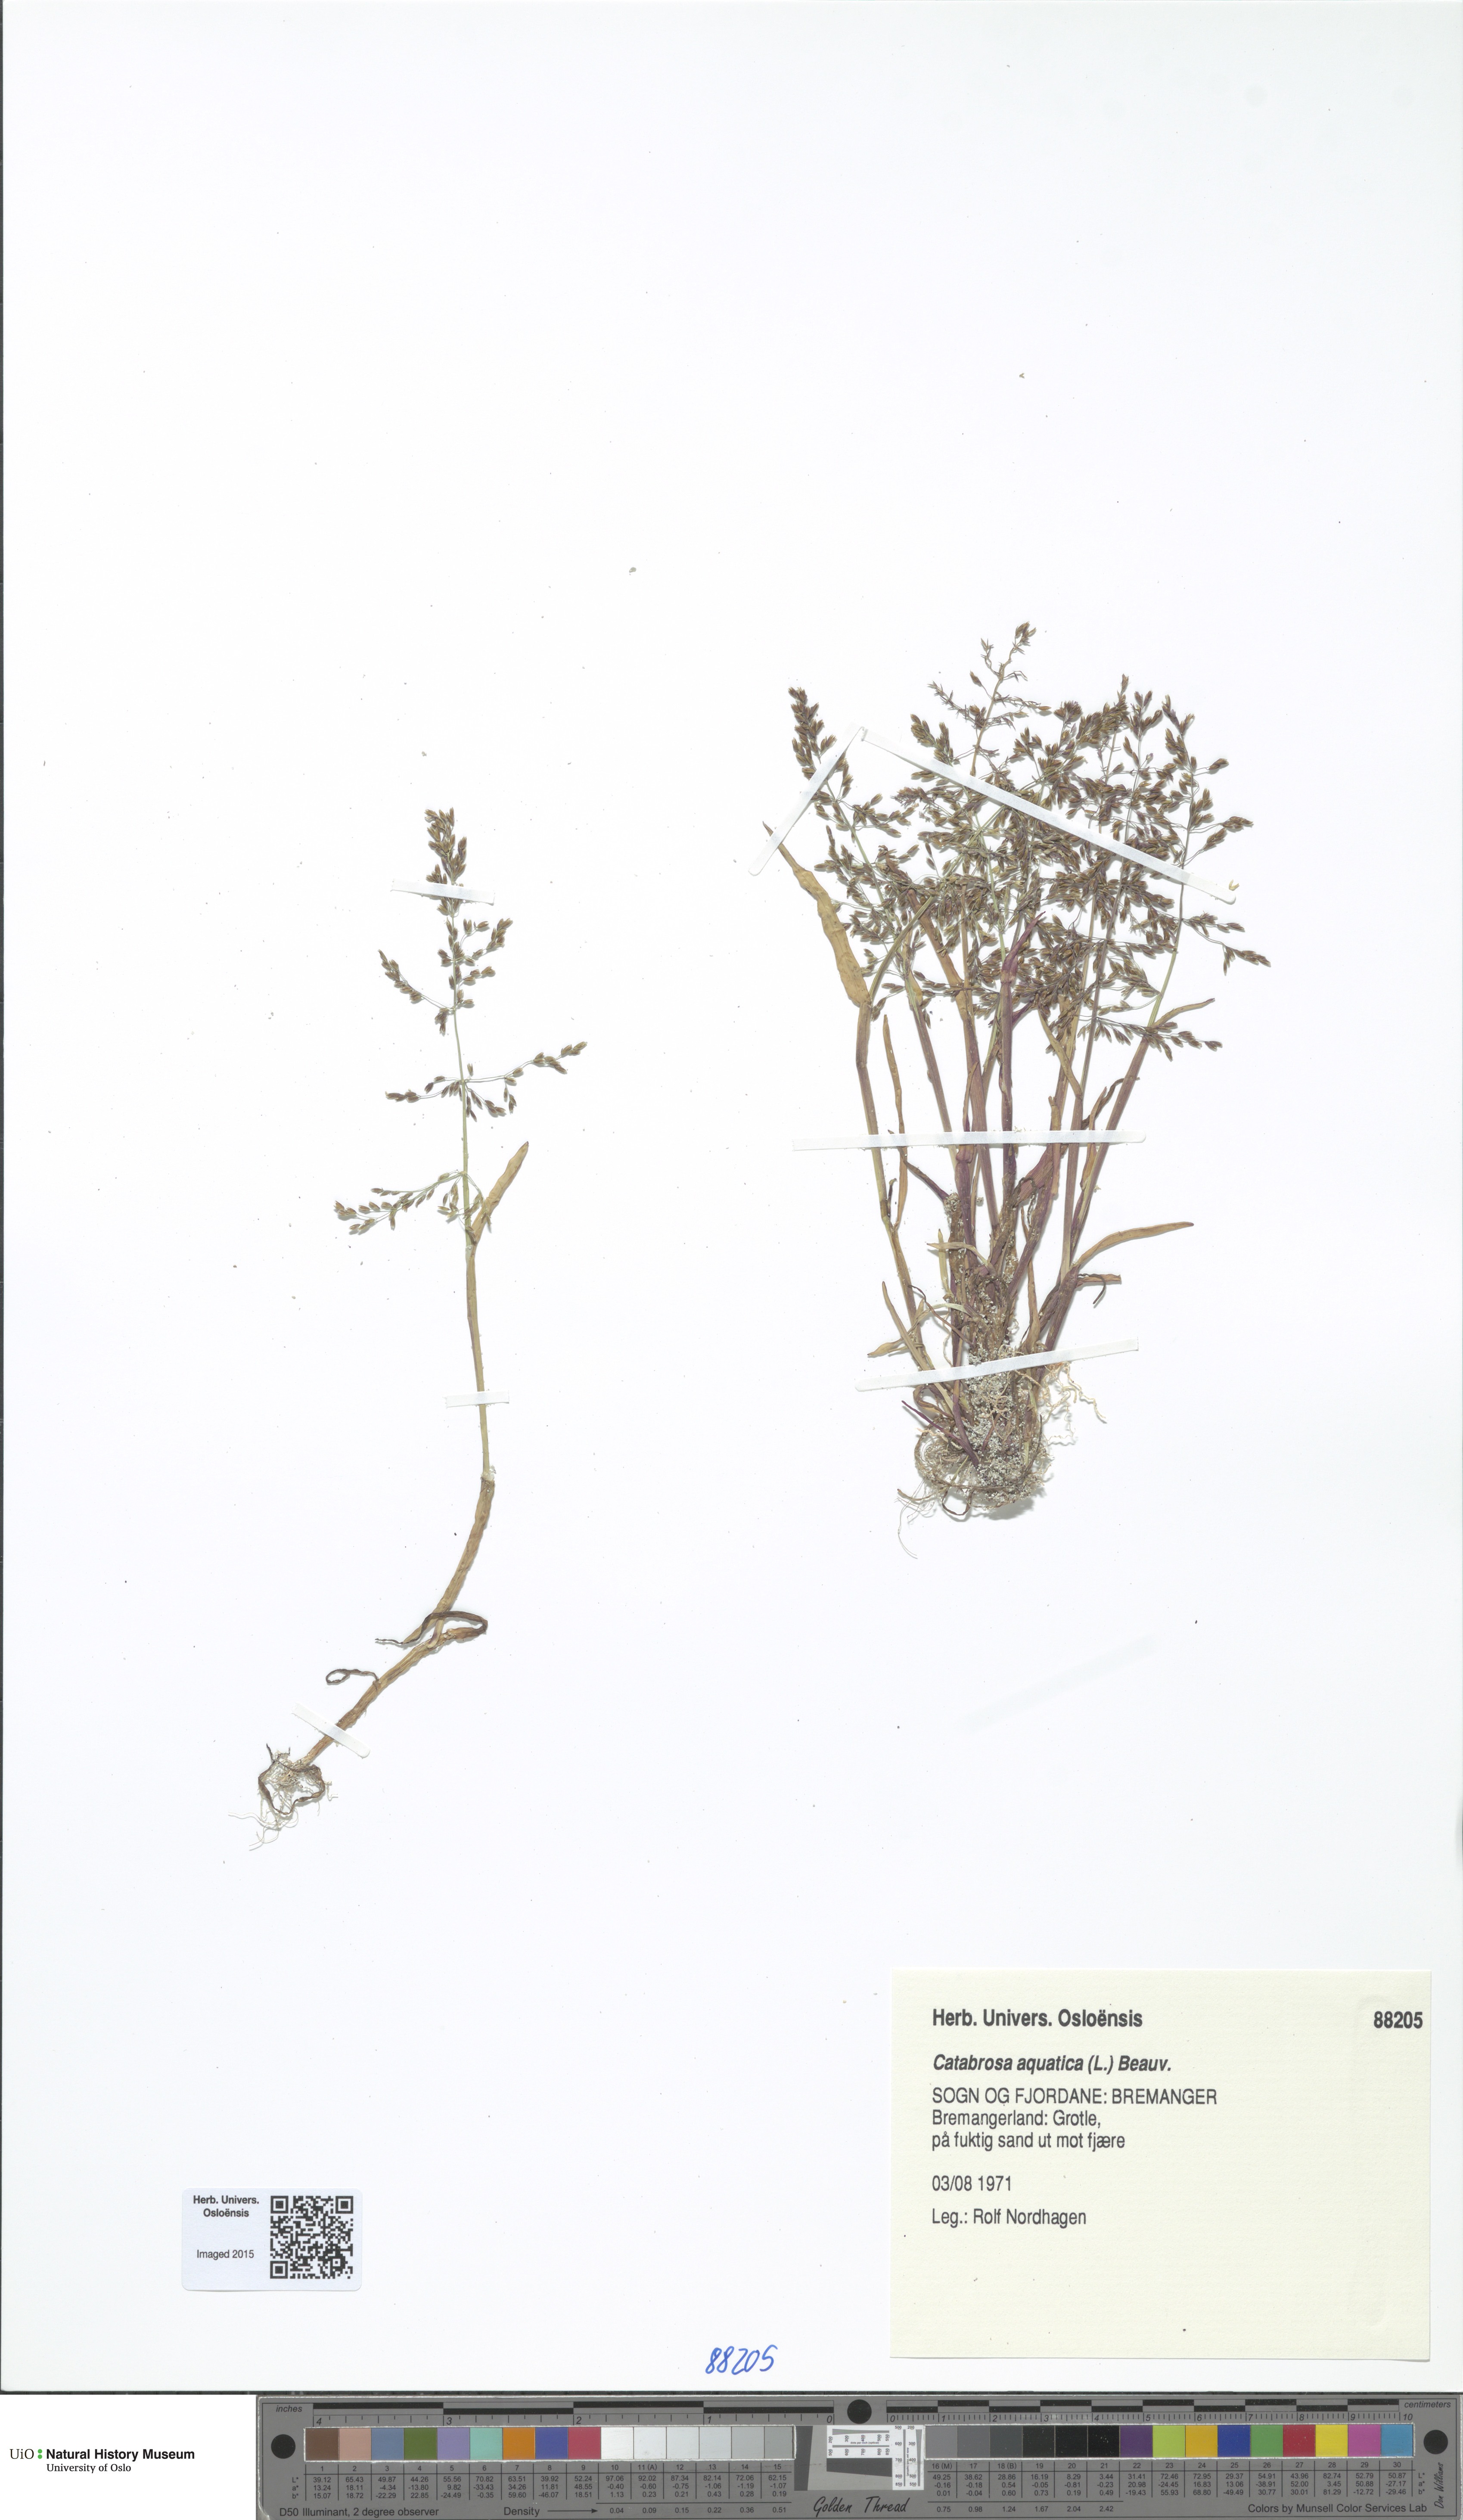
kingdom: Plantae
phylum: Tracheophyta
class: Liliopsida
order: Poales
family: Poaceae
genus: Catabrosa
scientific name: Catabrosa aquatica
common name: Whorl-grass
